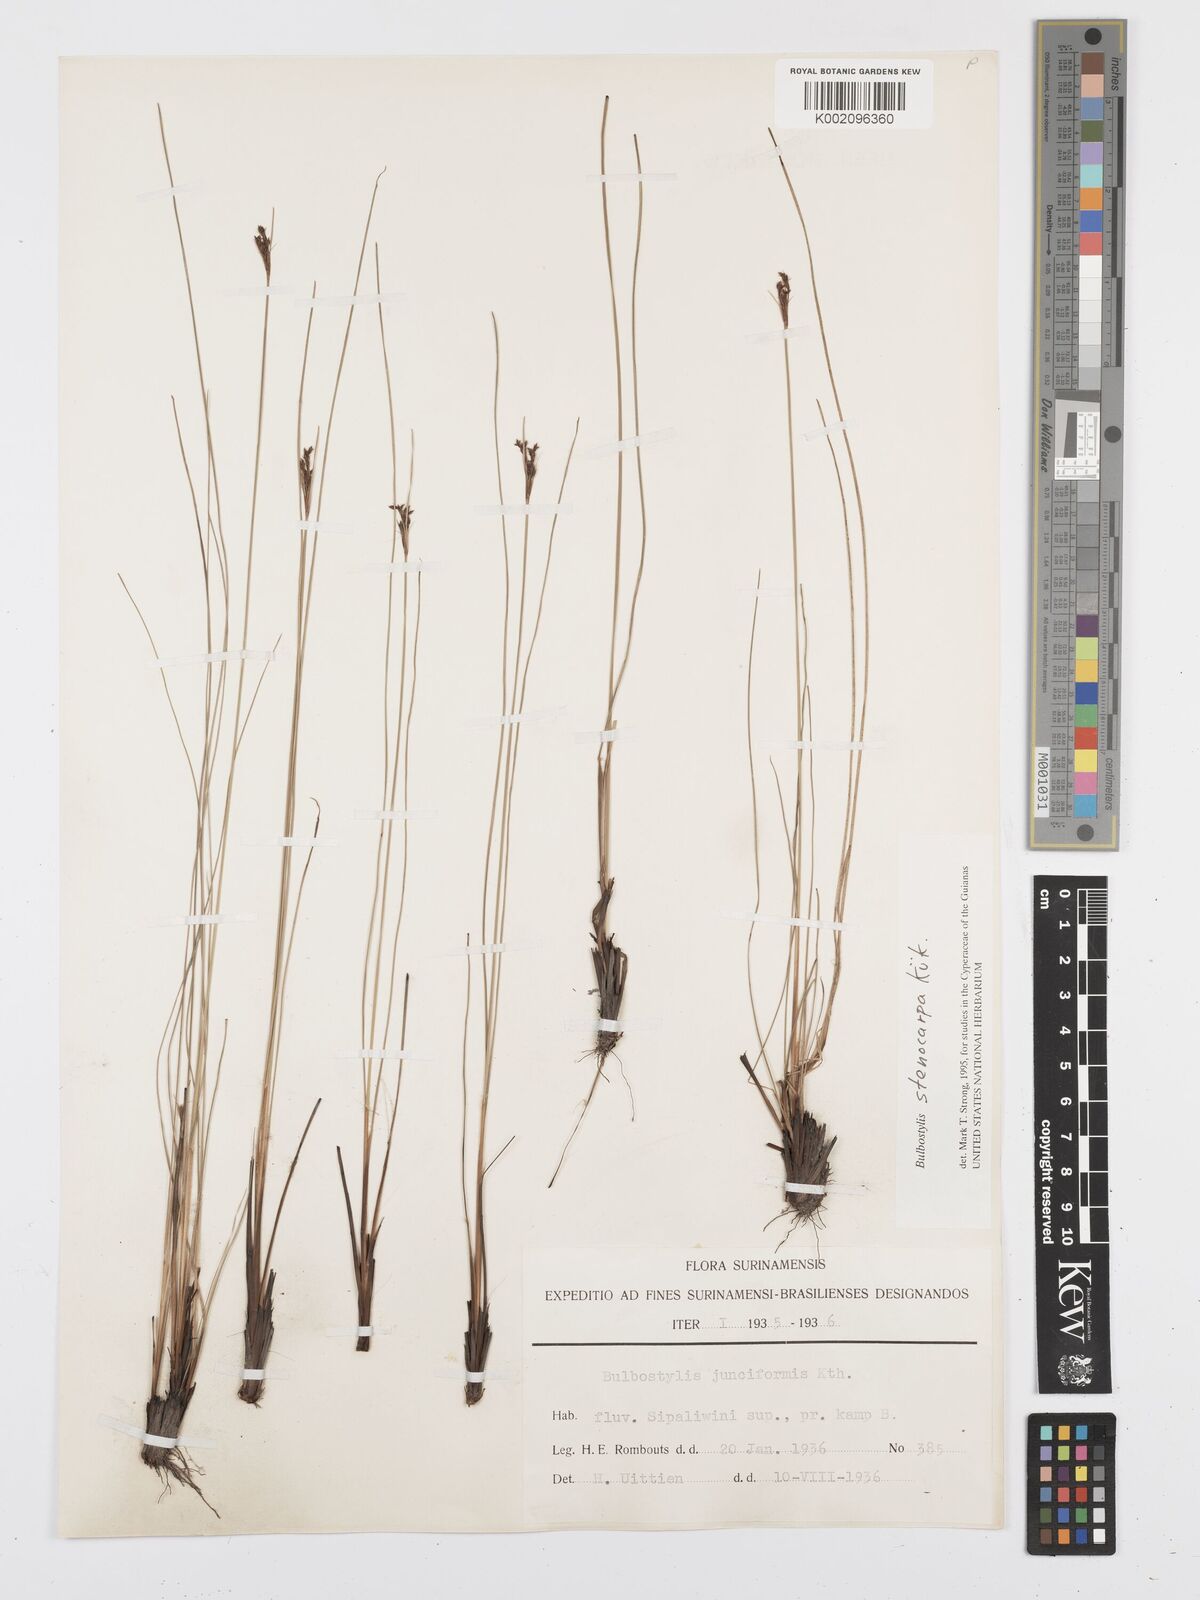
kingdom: Plantae
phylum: Tracheophyta
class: Liliopsida
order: Poales
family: Cyperaceae
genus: Bulbostylis
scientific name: Bulbostylis stenocarpa
